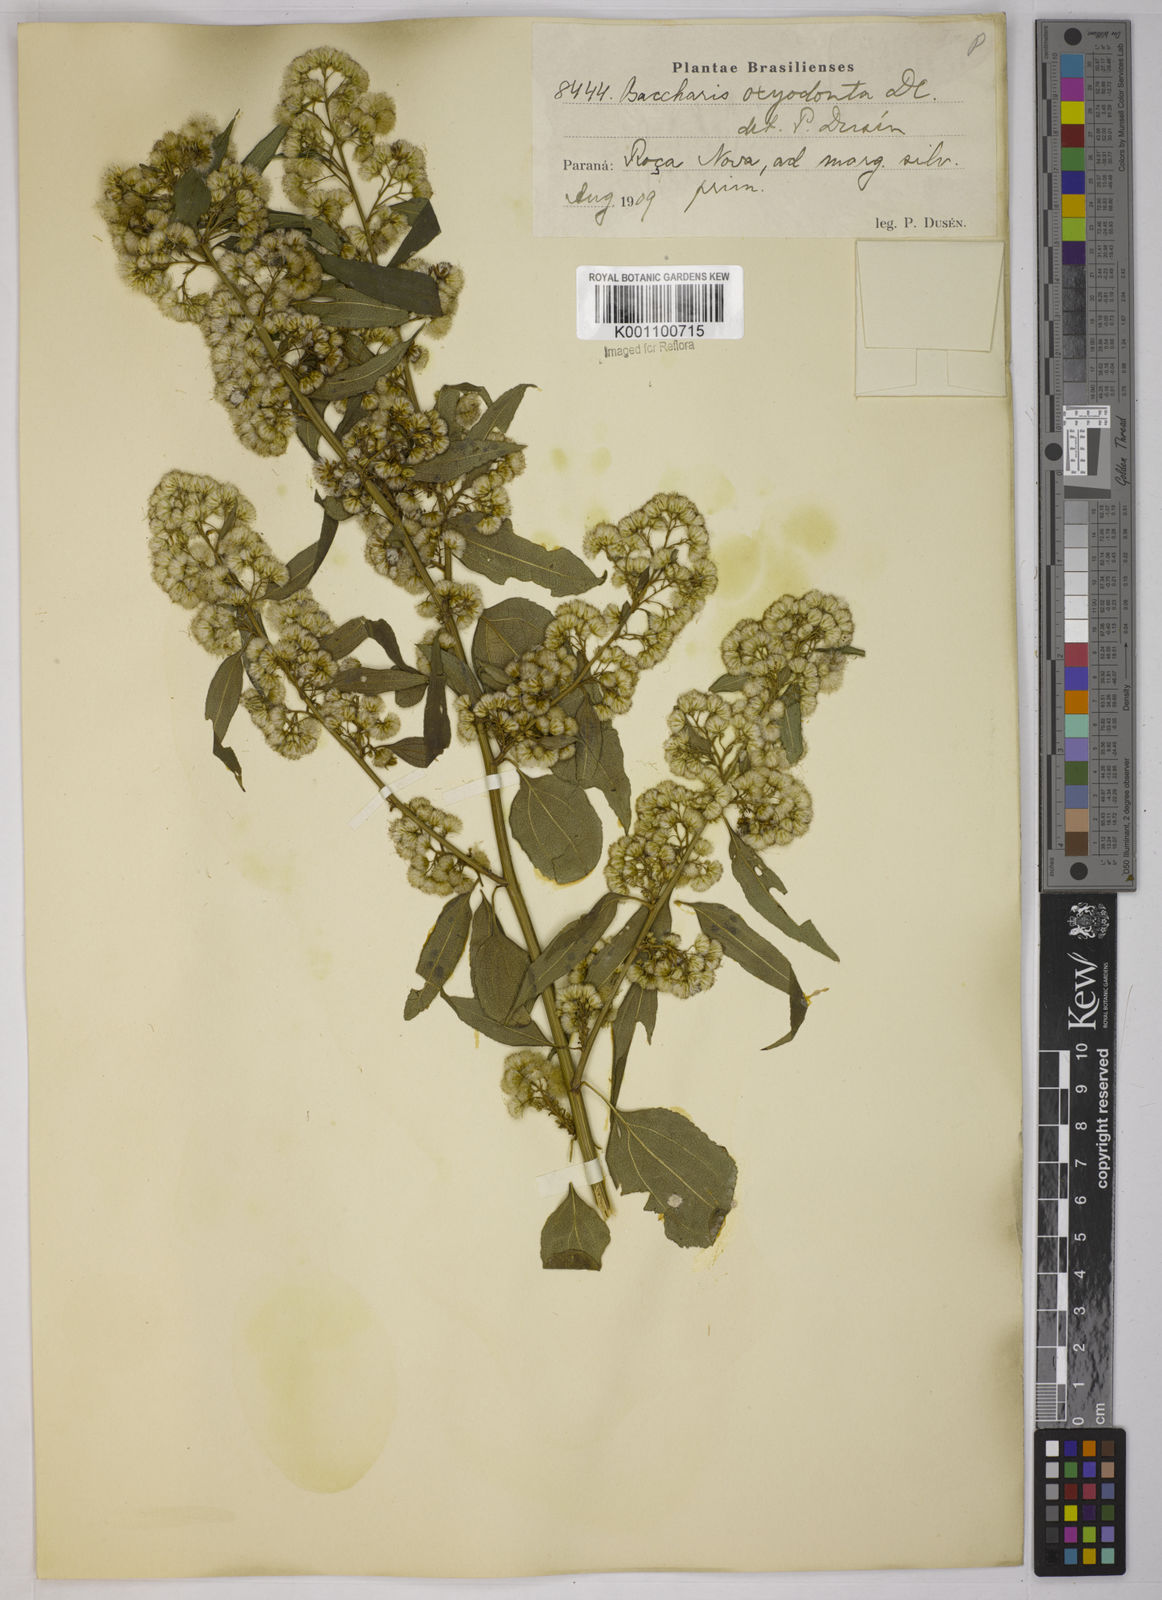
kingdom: Plantae
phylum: Tracheophyta
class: Magnoliopsida
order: Asterales
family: Asteraceae
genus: Baccharis
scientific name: Baccharis oxyodonta
